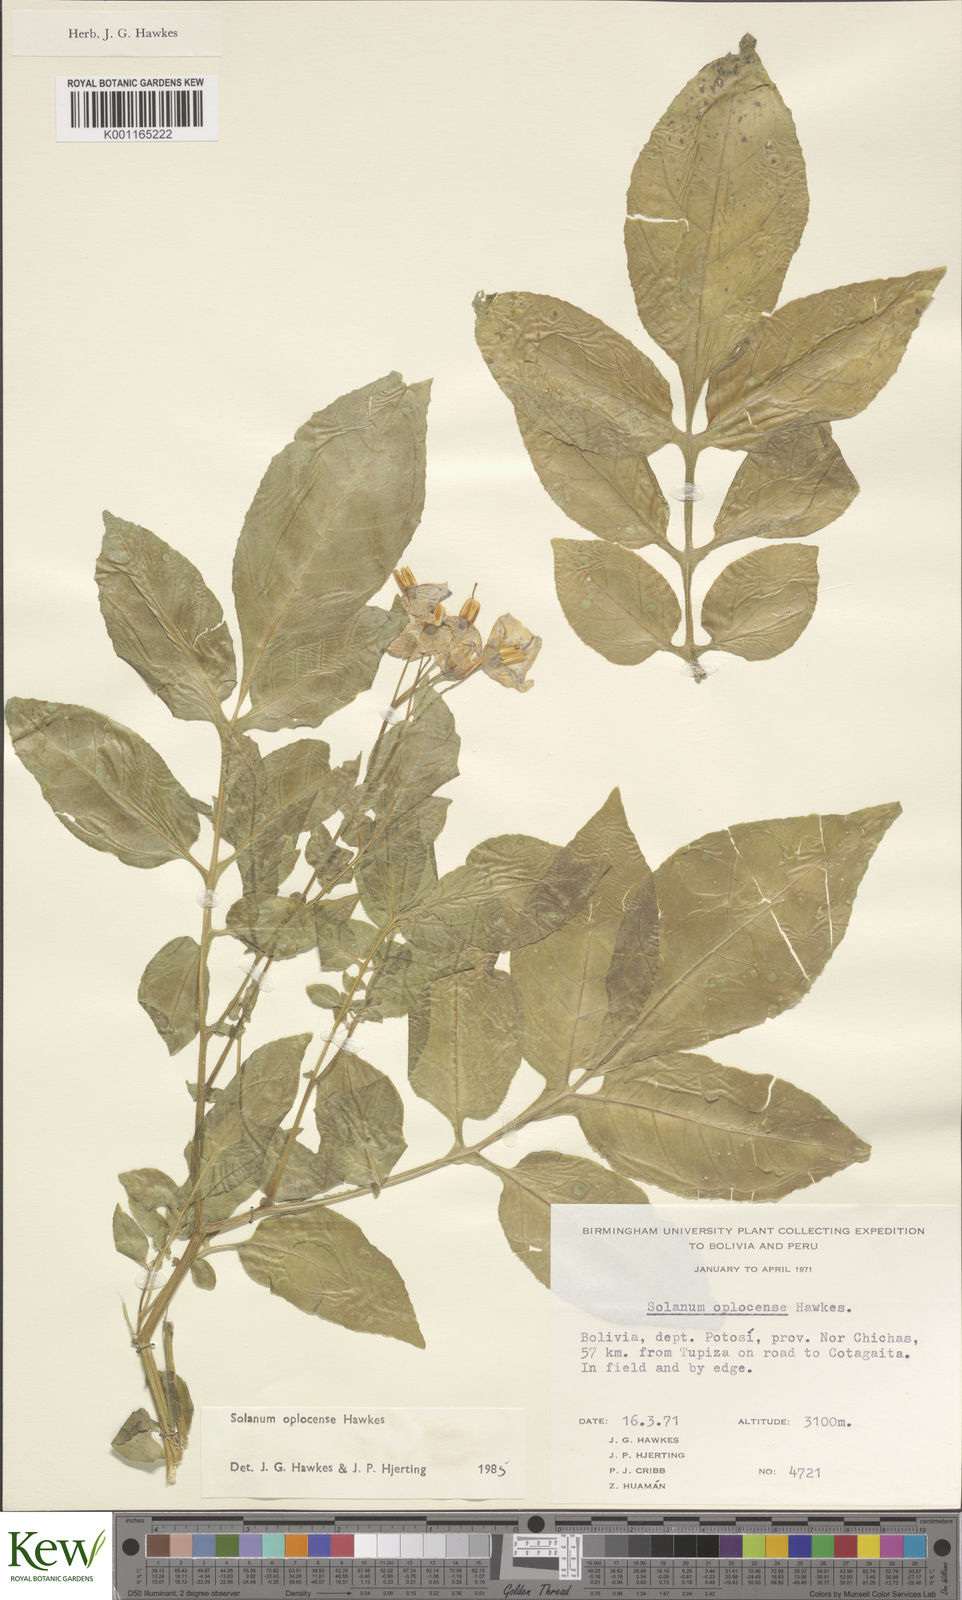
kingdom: Plantae
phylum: Tracheophyta
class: Magnoliopsida
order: Solanales
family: Solanaceae
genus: Solanum
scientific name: Solanum brevicaule
